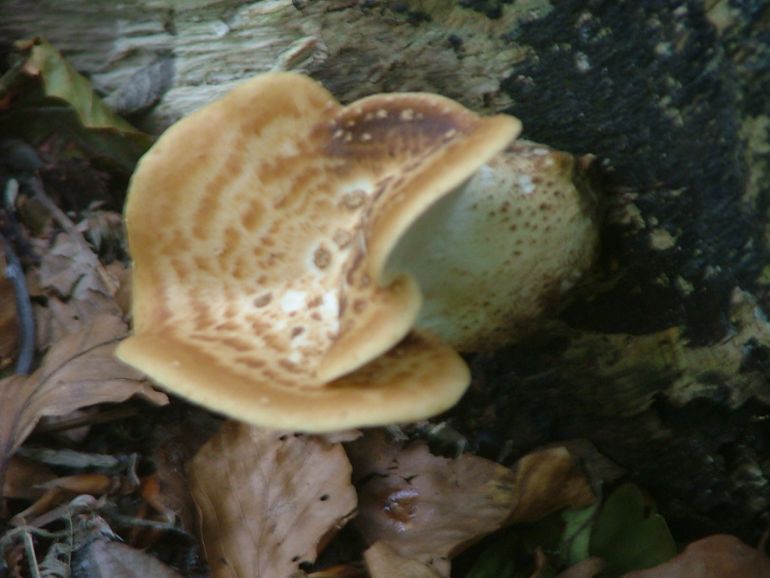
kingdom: Fungi
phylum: Basidiomycota
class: Agaricomycetes
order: Polyporales
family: Polyporaceae
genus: Cerioporus
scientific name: Cerioporus squamosus
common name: skællet stilkporesvamp
